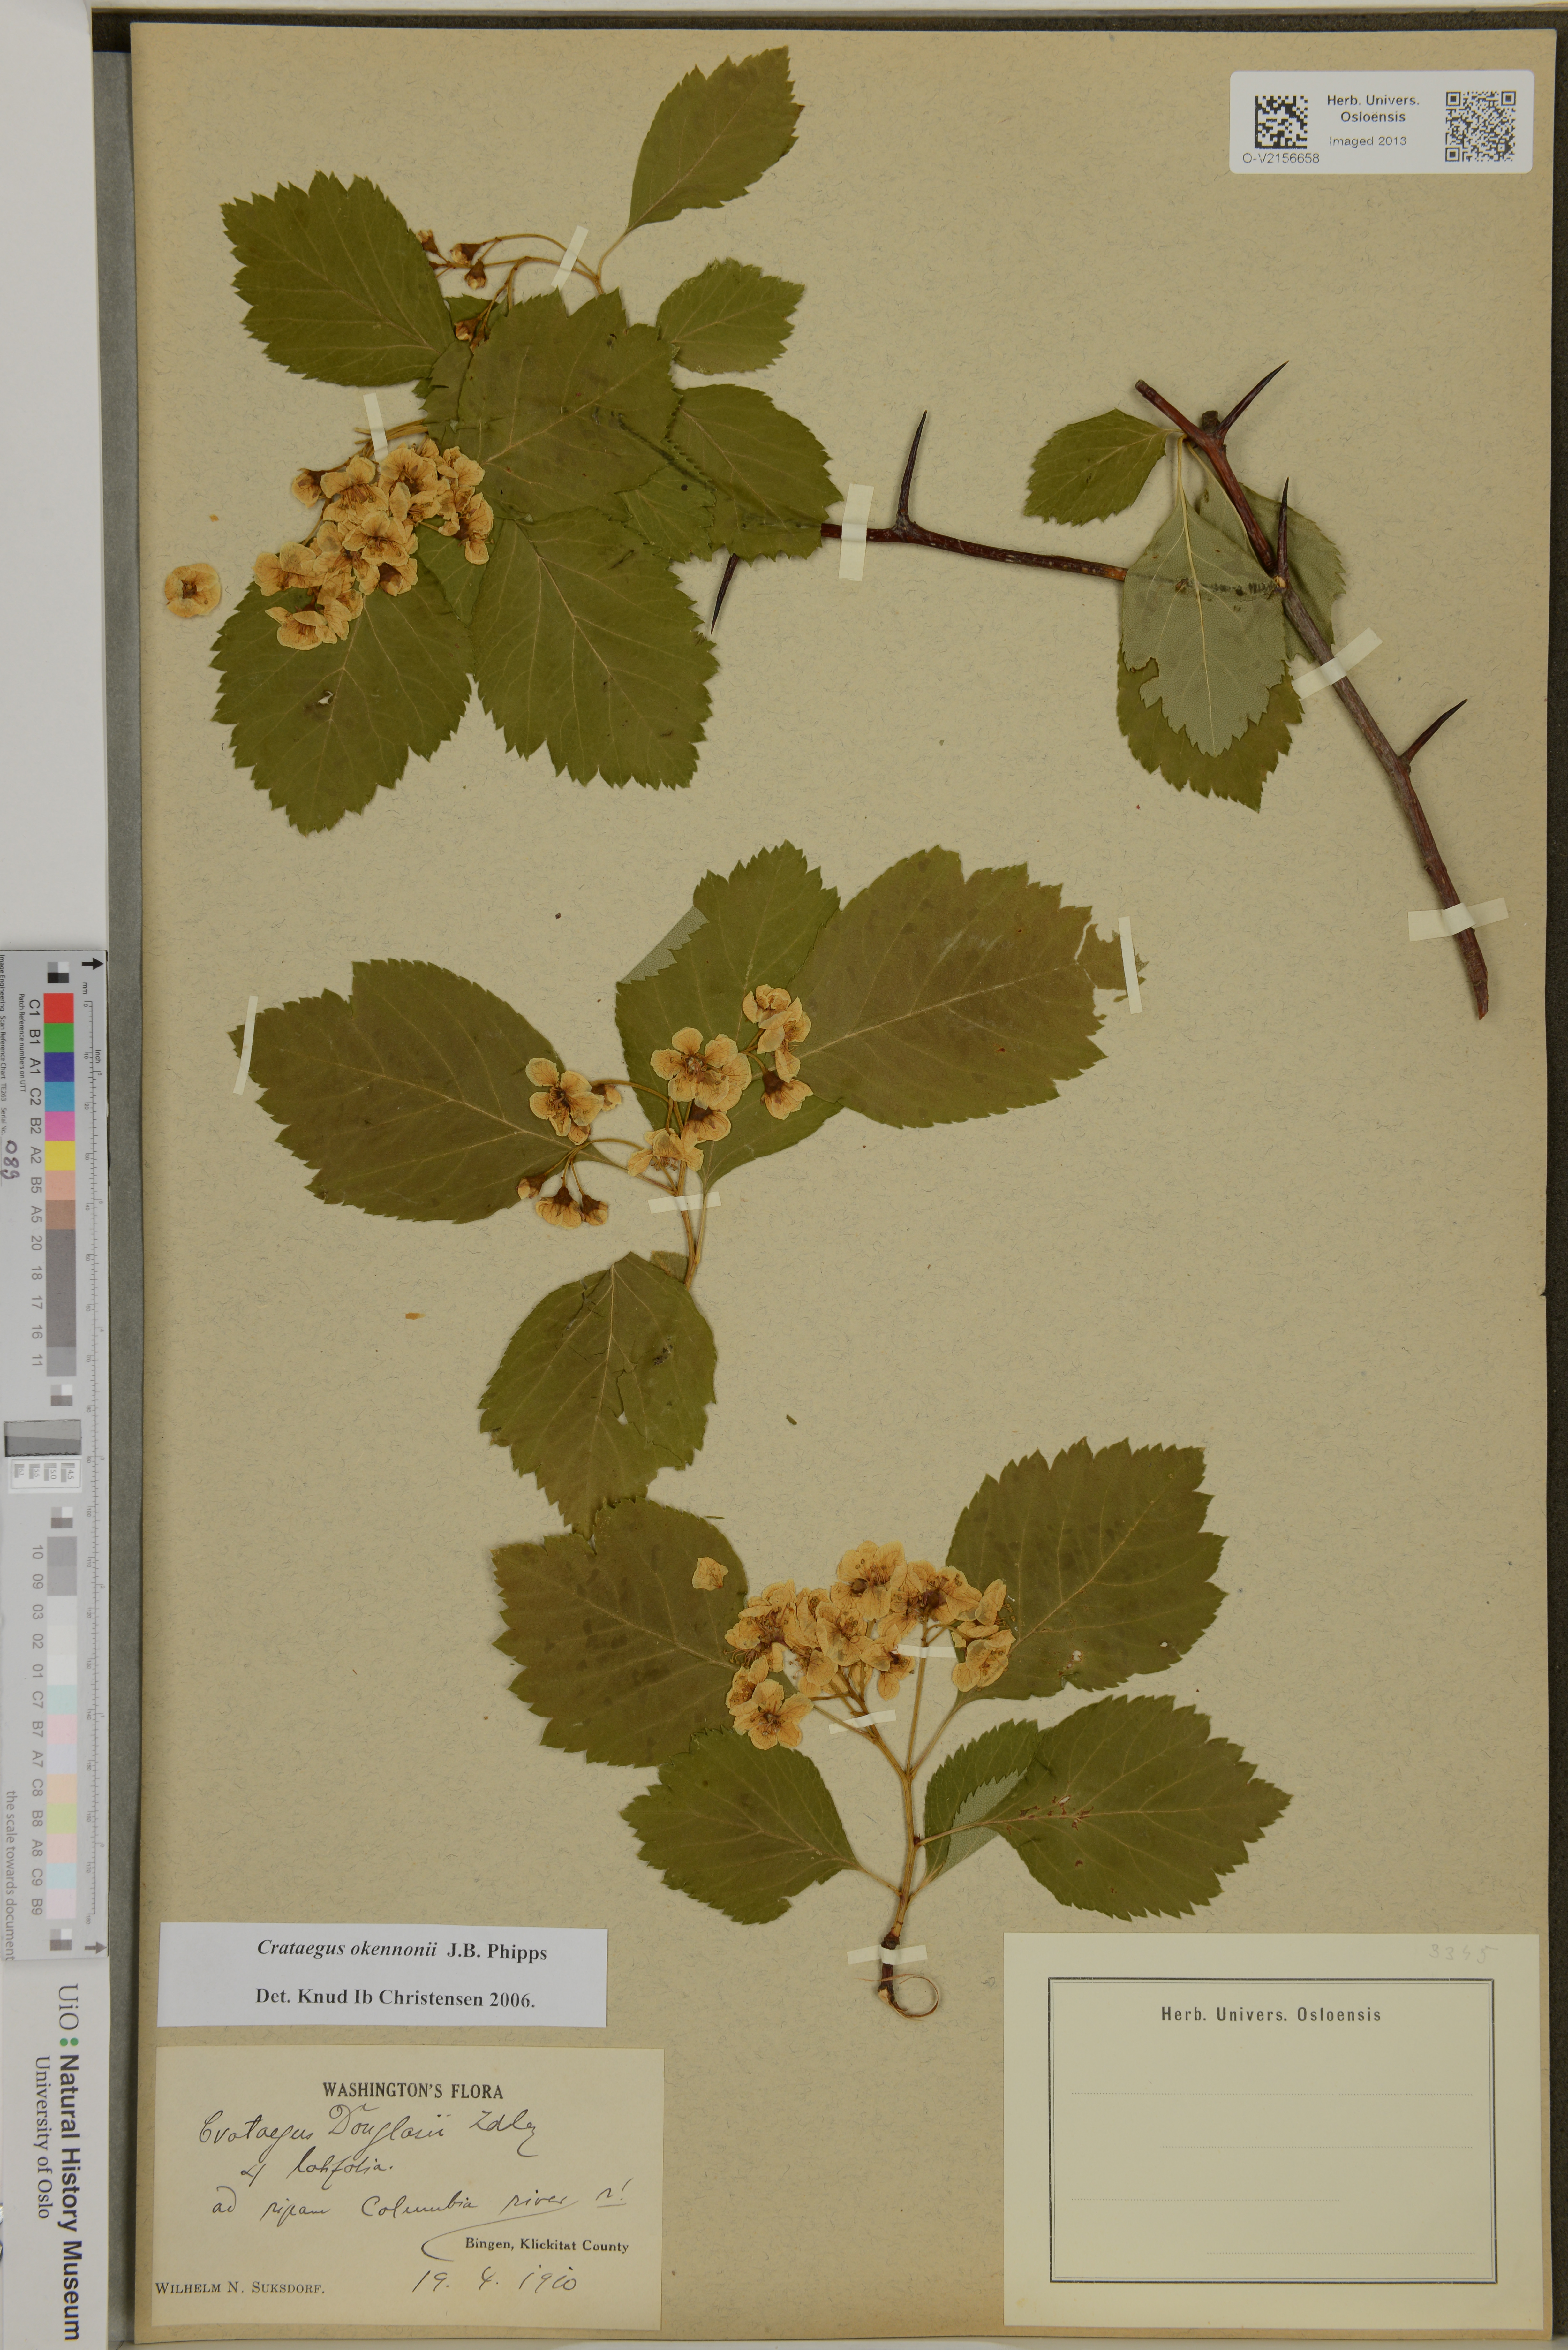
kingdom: Plantae
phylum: Tracheophyta
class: Magnoliopsida
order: Rosales
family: Rosaceae
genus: Crataegus
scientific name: Crataegus okennonii
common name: O'kennon's hawthorn
